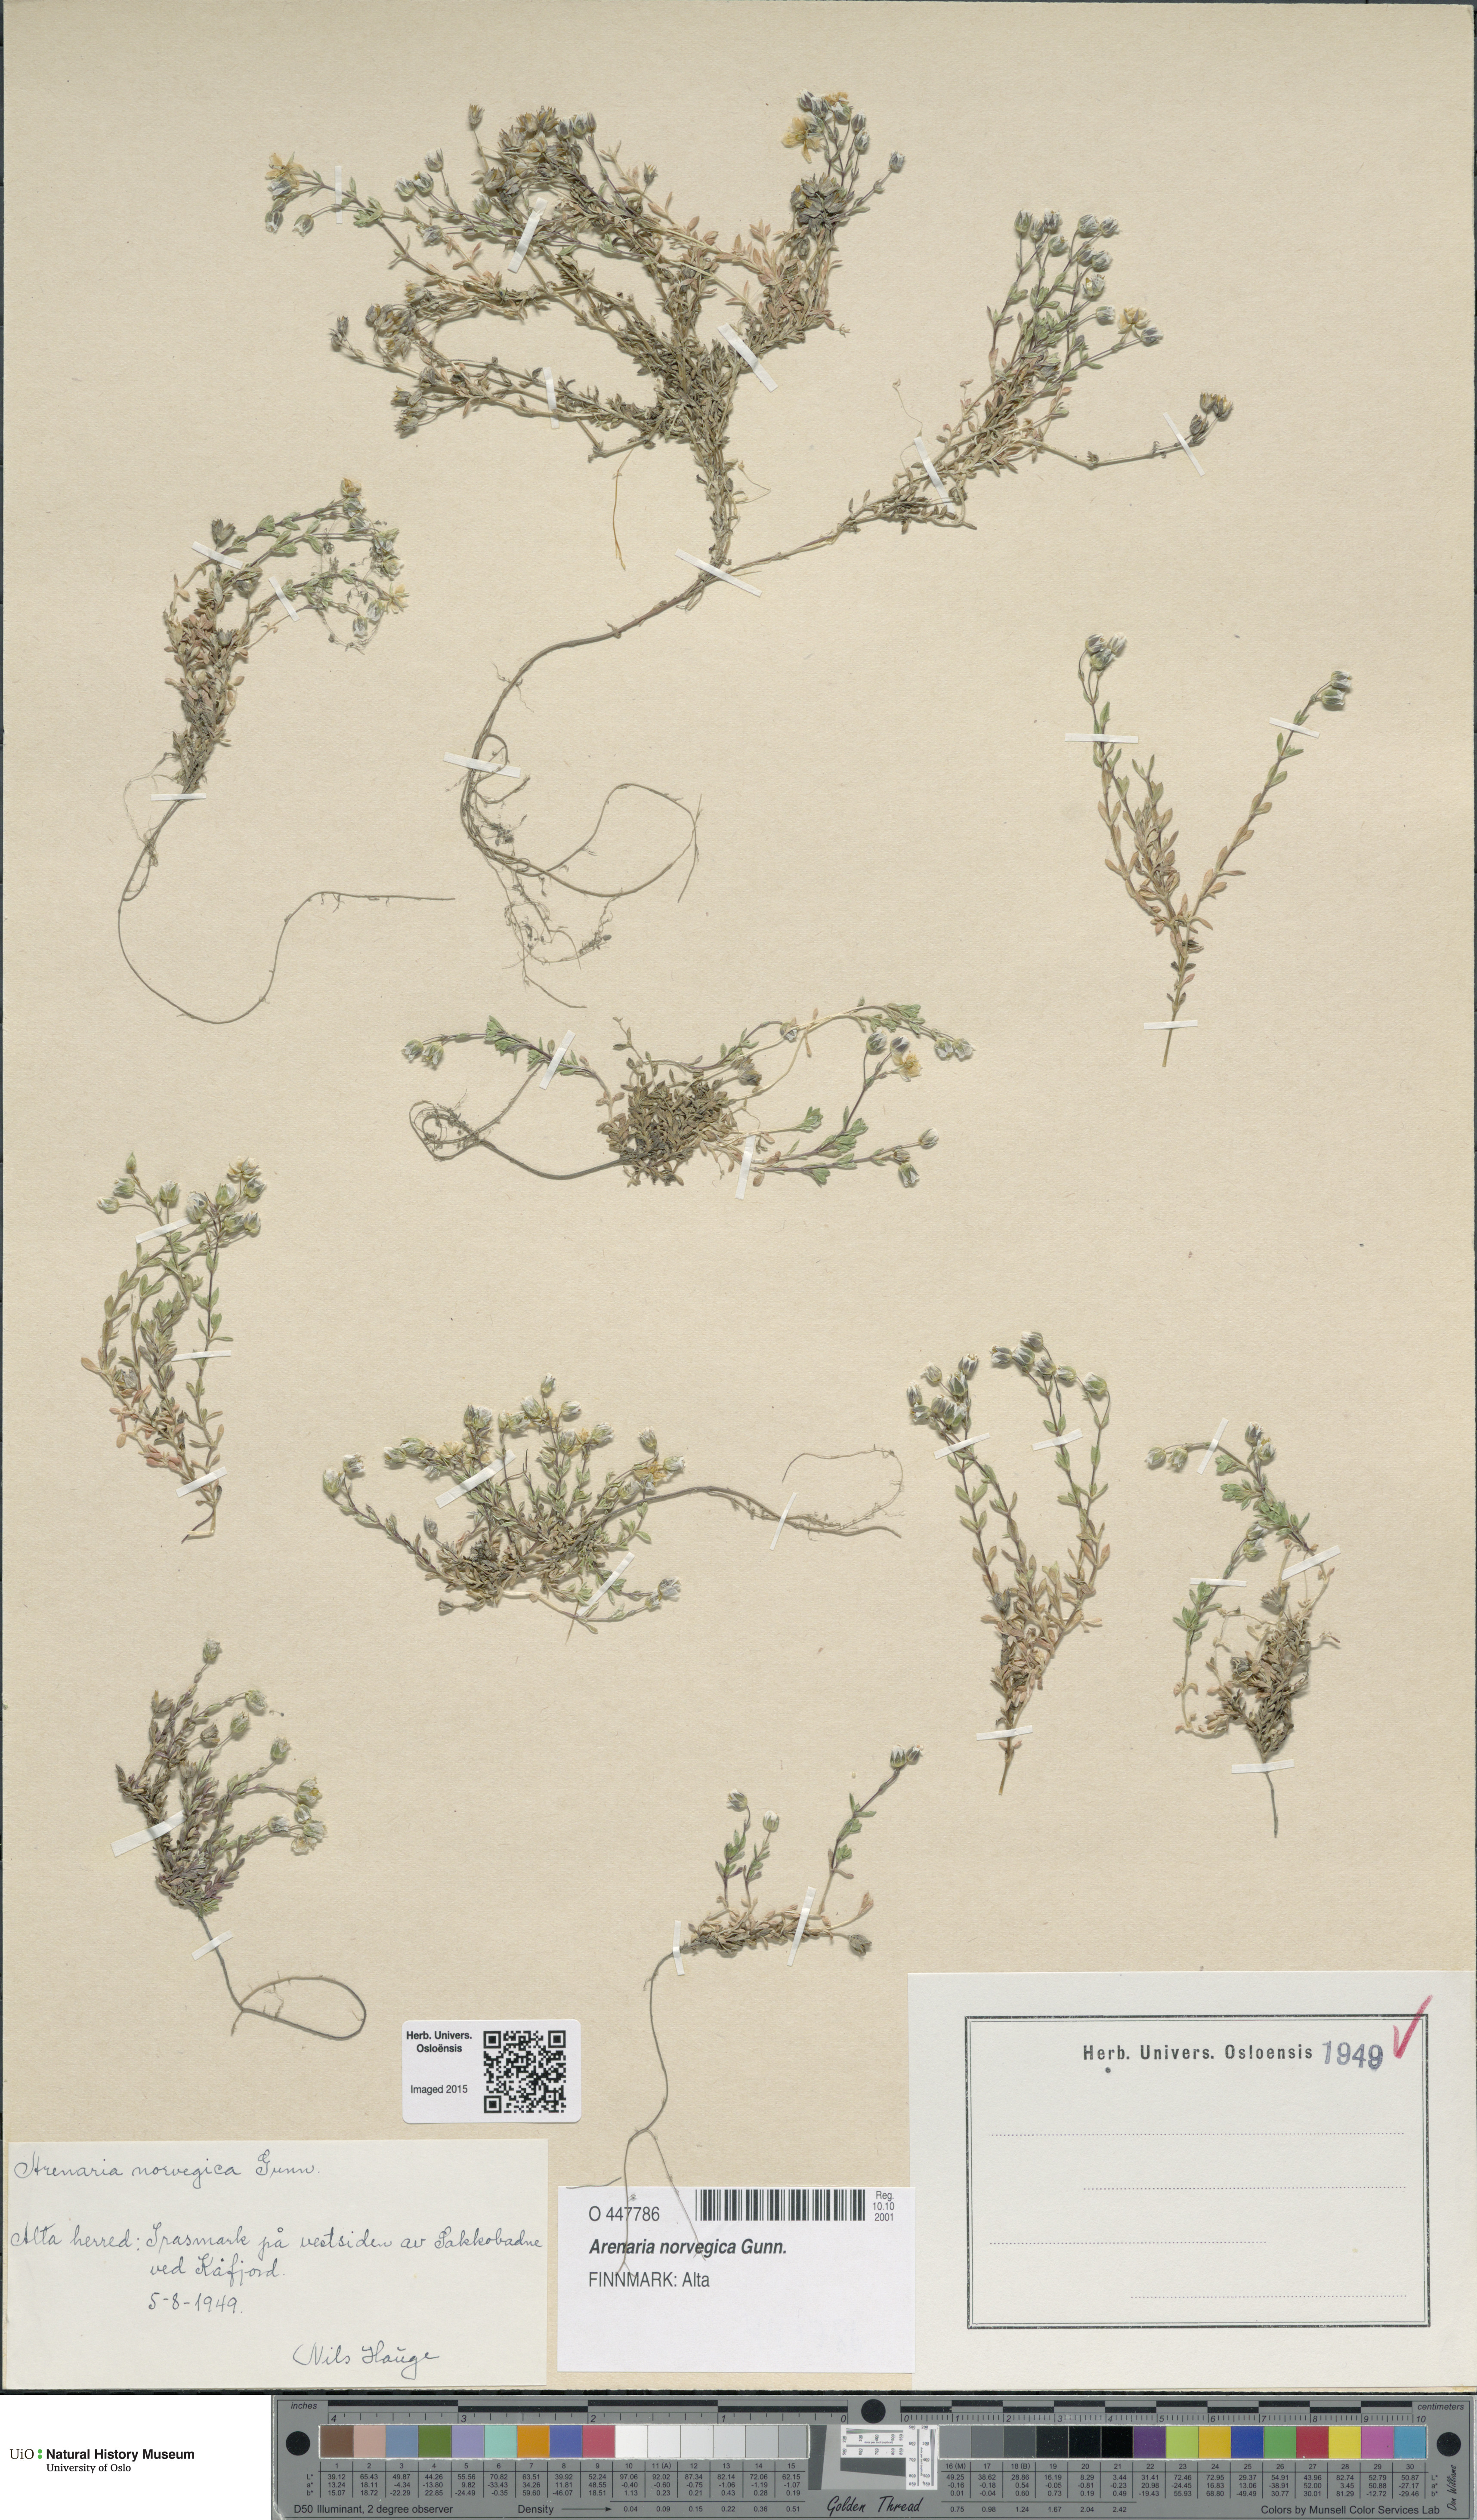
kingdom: Plantae
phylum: Tracheophyta
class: Magnoliopsida
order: Caryophyllales
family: Caryophyllaceae
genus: Arenaria
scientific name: Arenaria norvegica
